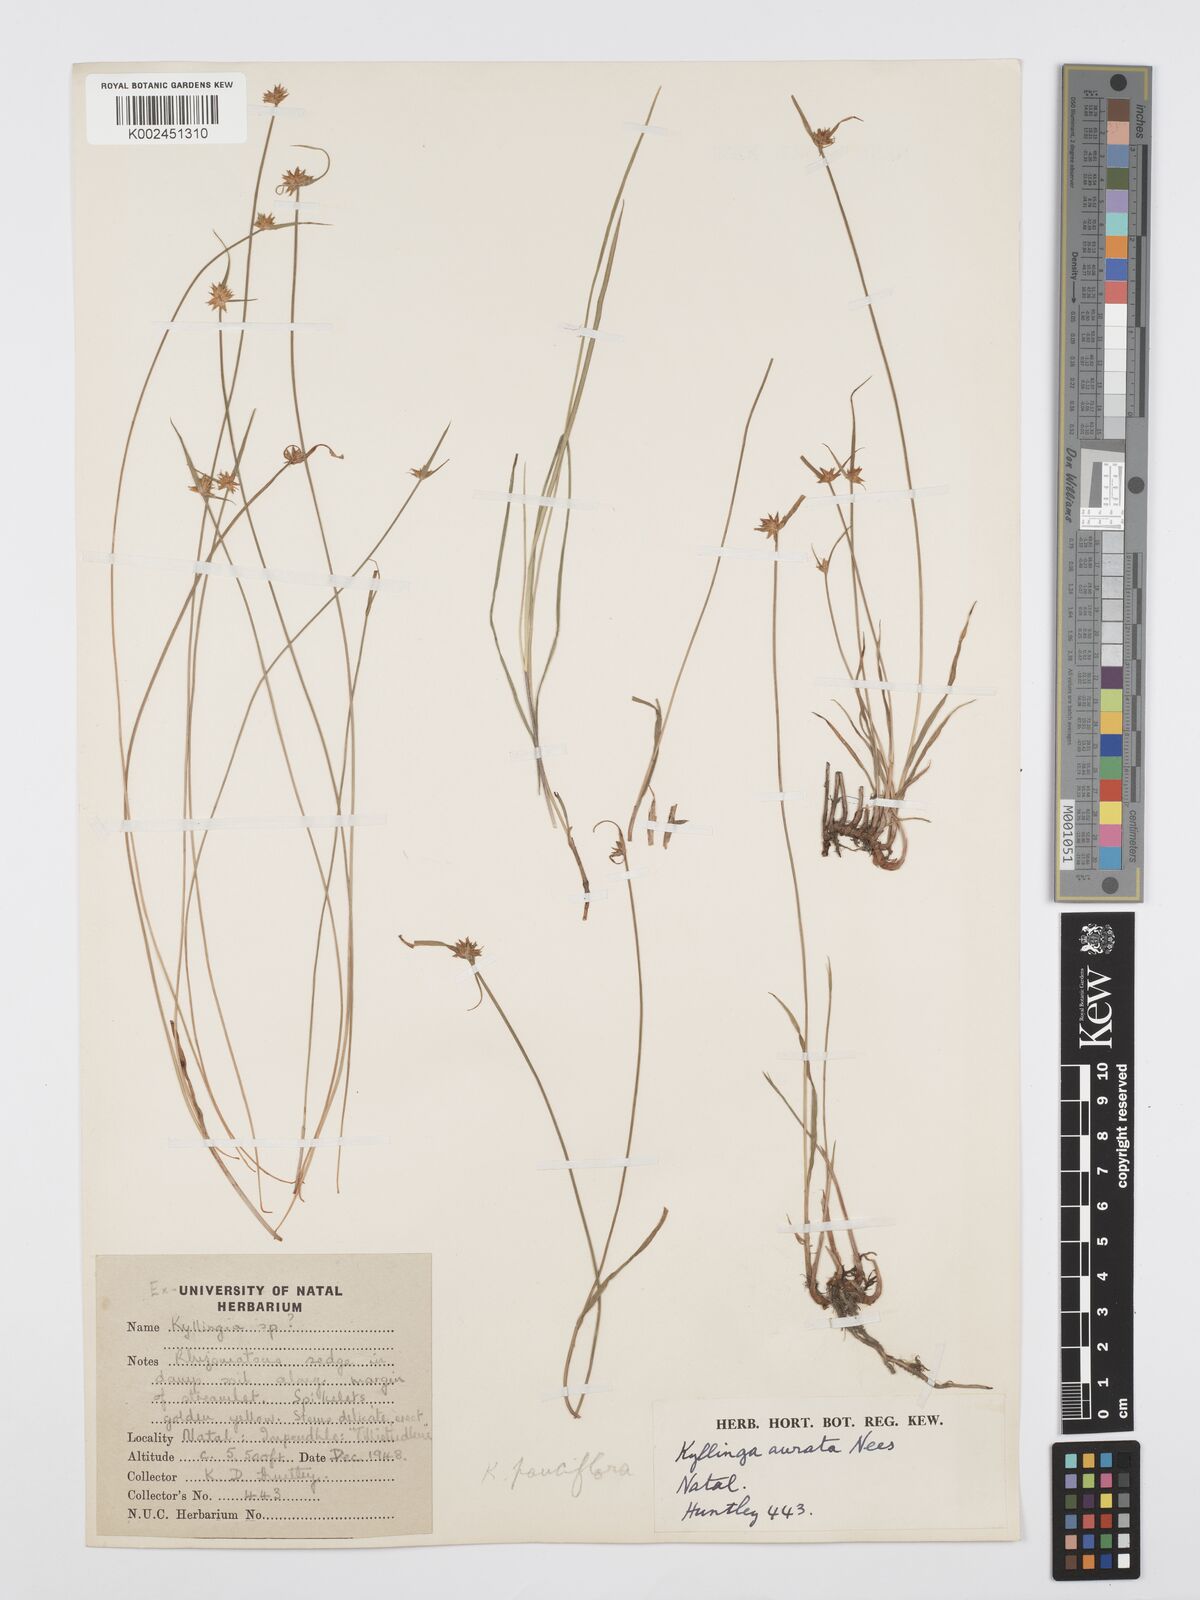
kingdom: Plantae
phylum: Tracheophyta
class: Liliopsida
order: Poales
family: Cyperaceae
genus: Cyperus
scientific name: Cyperus
